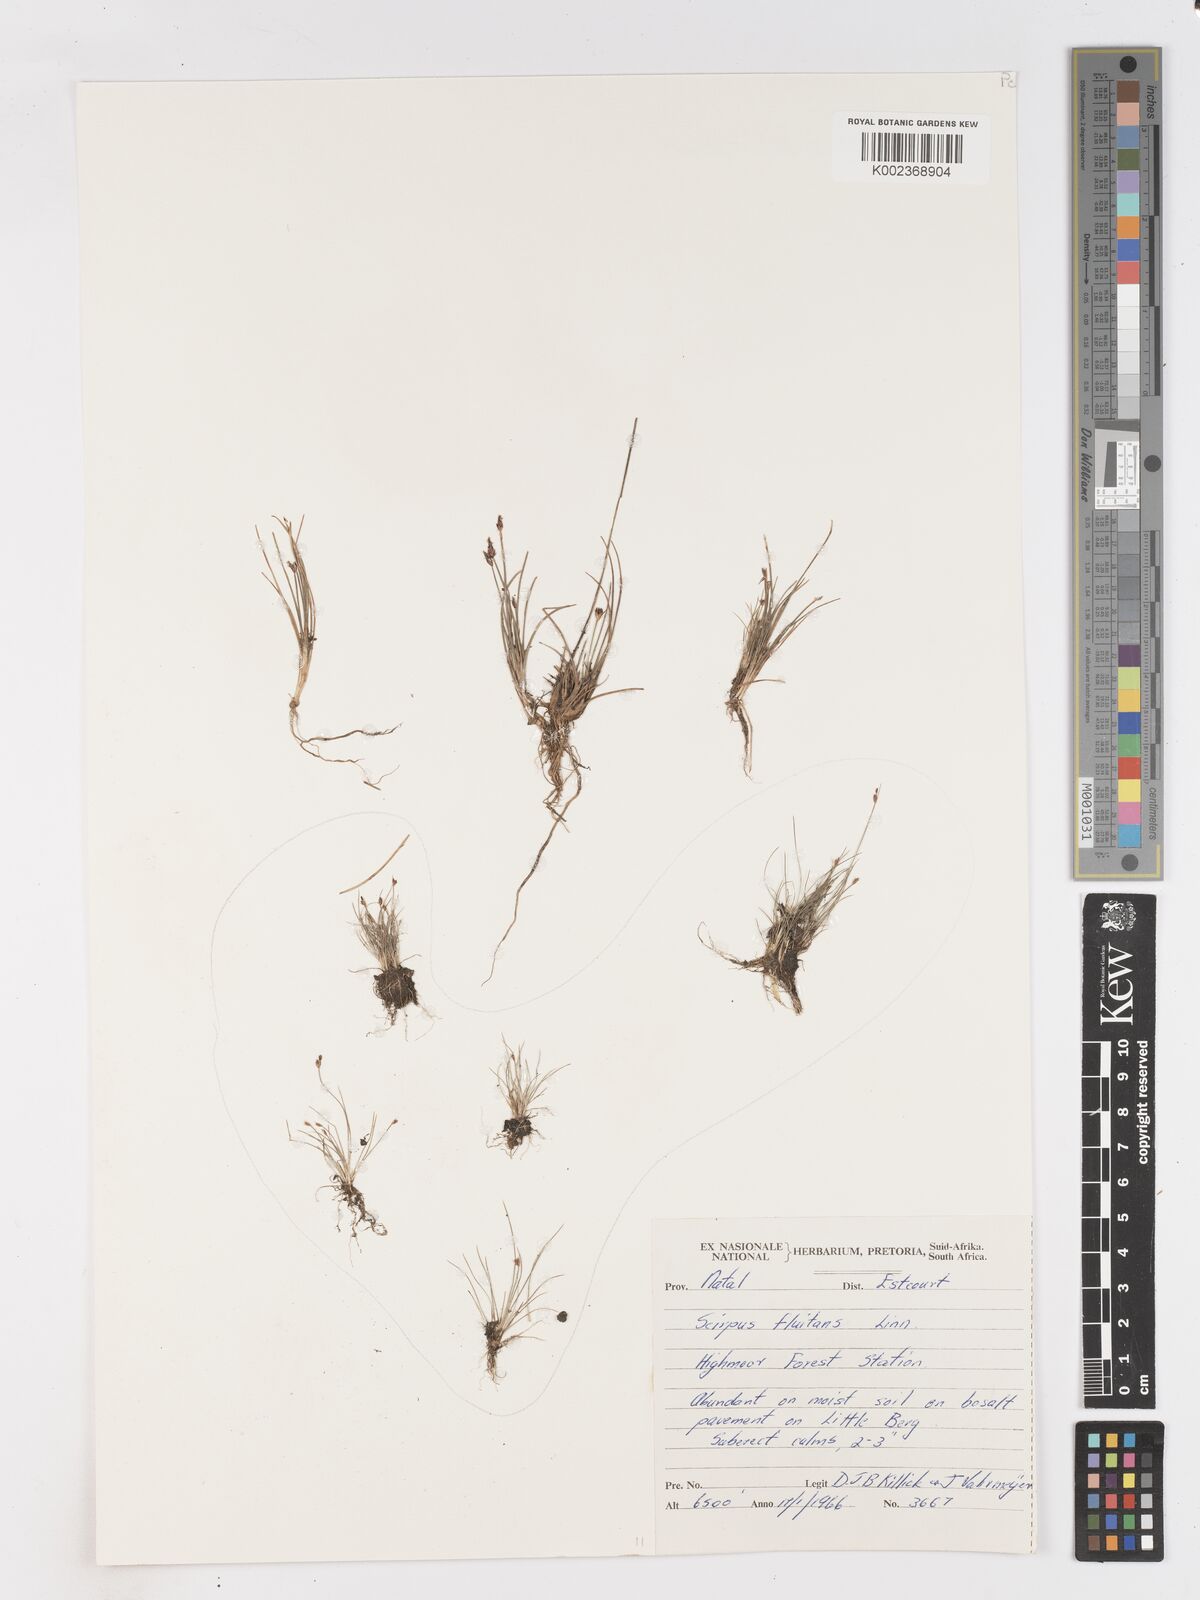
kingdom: Plantae
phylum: Tracheophyta
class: Liliopsida
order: Poales
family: Cyperaceae
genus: Isolepis
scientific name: Isolepis fluitans
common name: Floating club-rush
